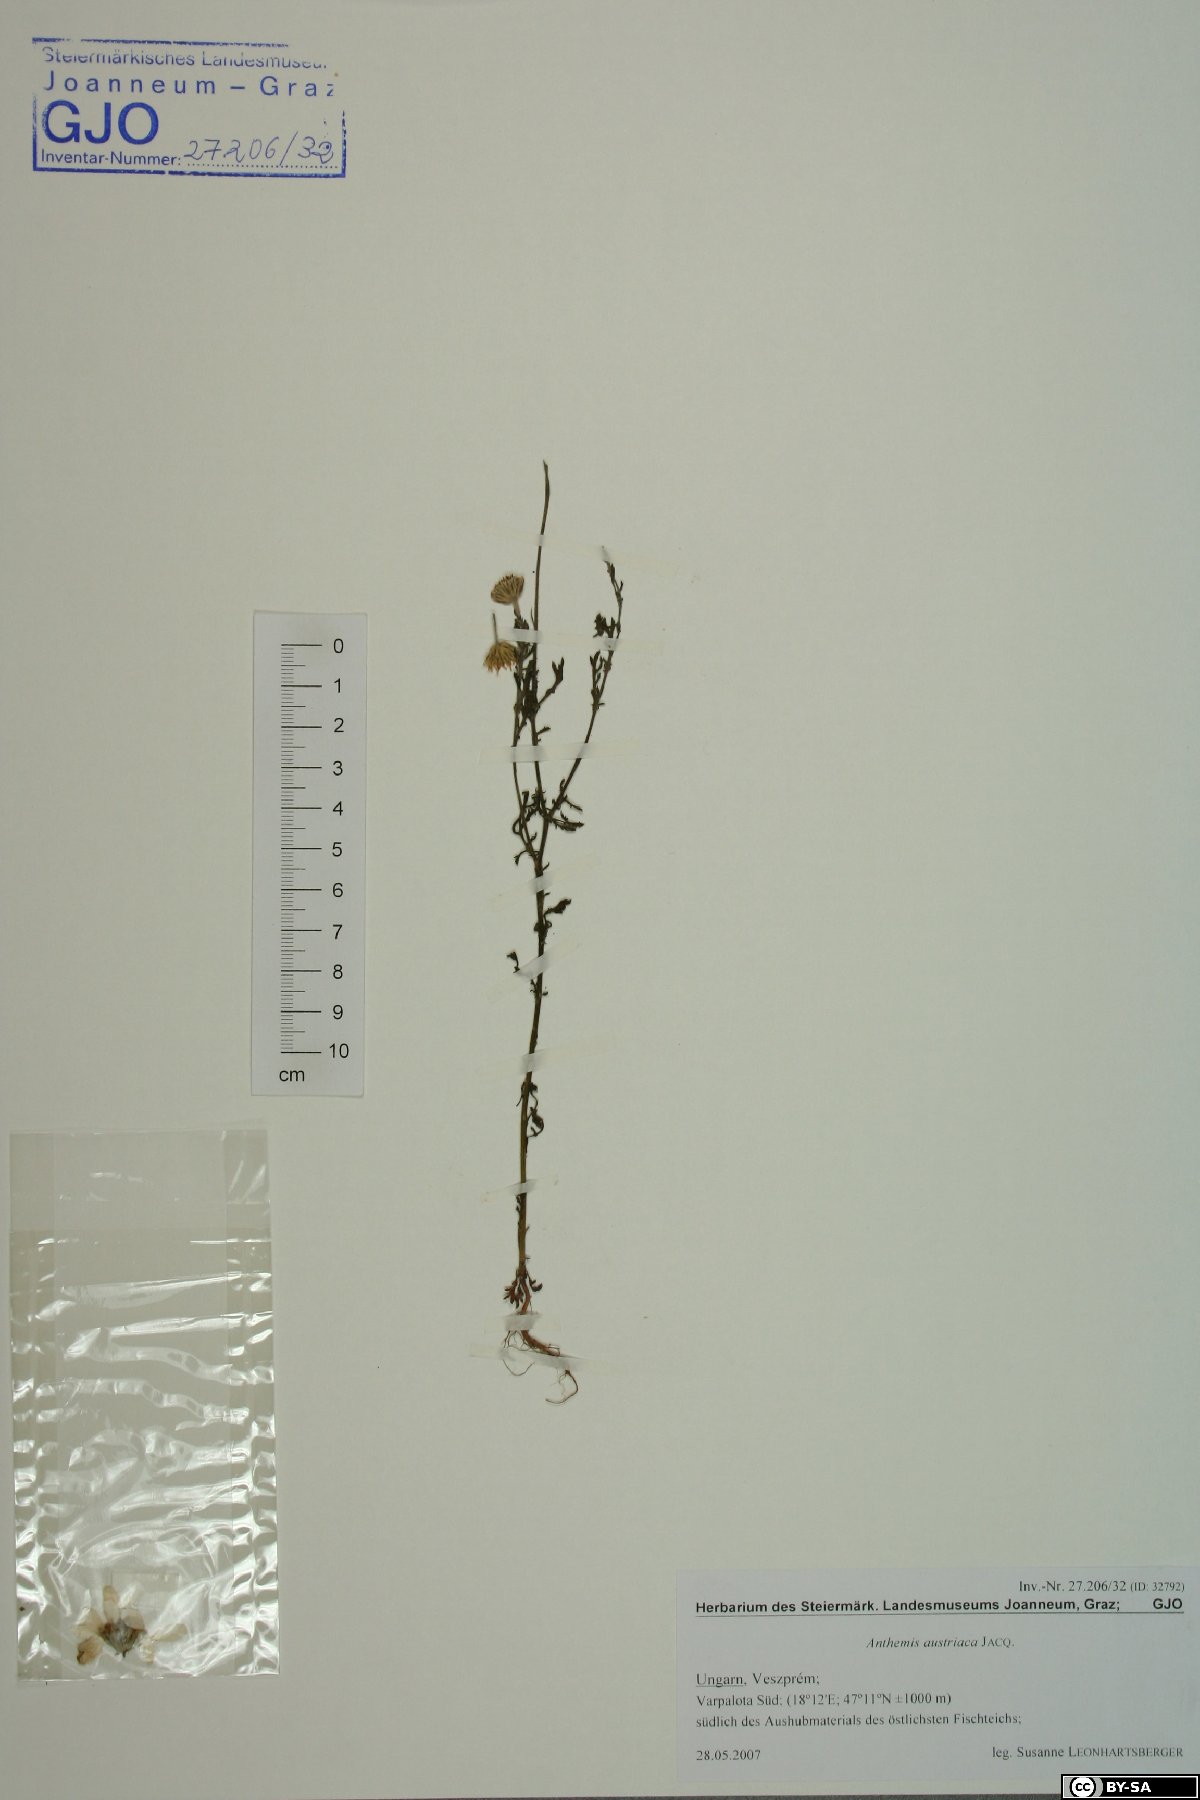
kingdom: Plantae
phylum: Tracheophyta
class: Magnoliopsida
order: Asterales
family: Asteraceae
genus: Cota
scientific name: Cota austriaca
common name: Austrian chamomile
